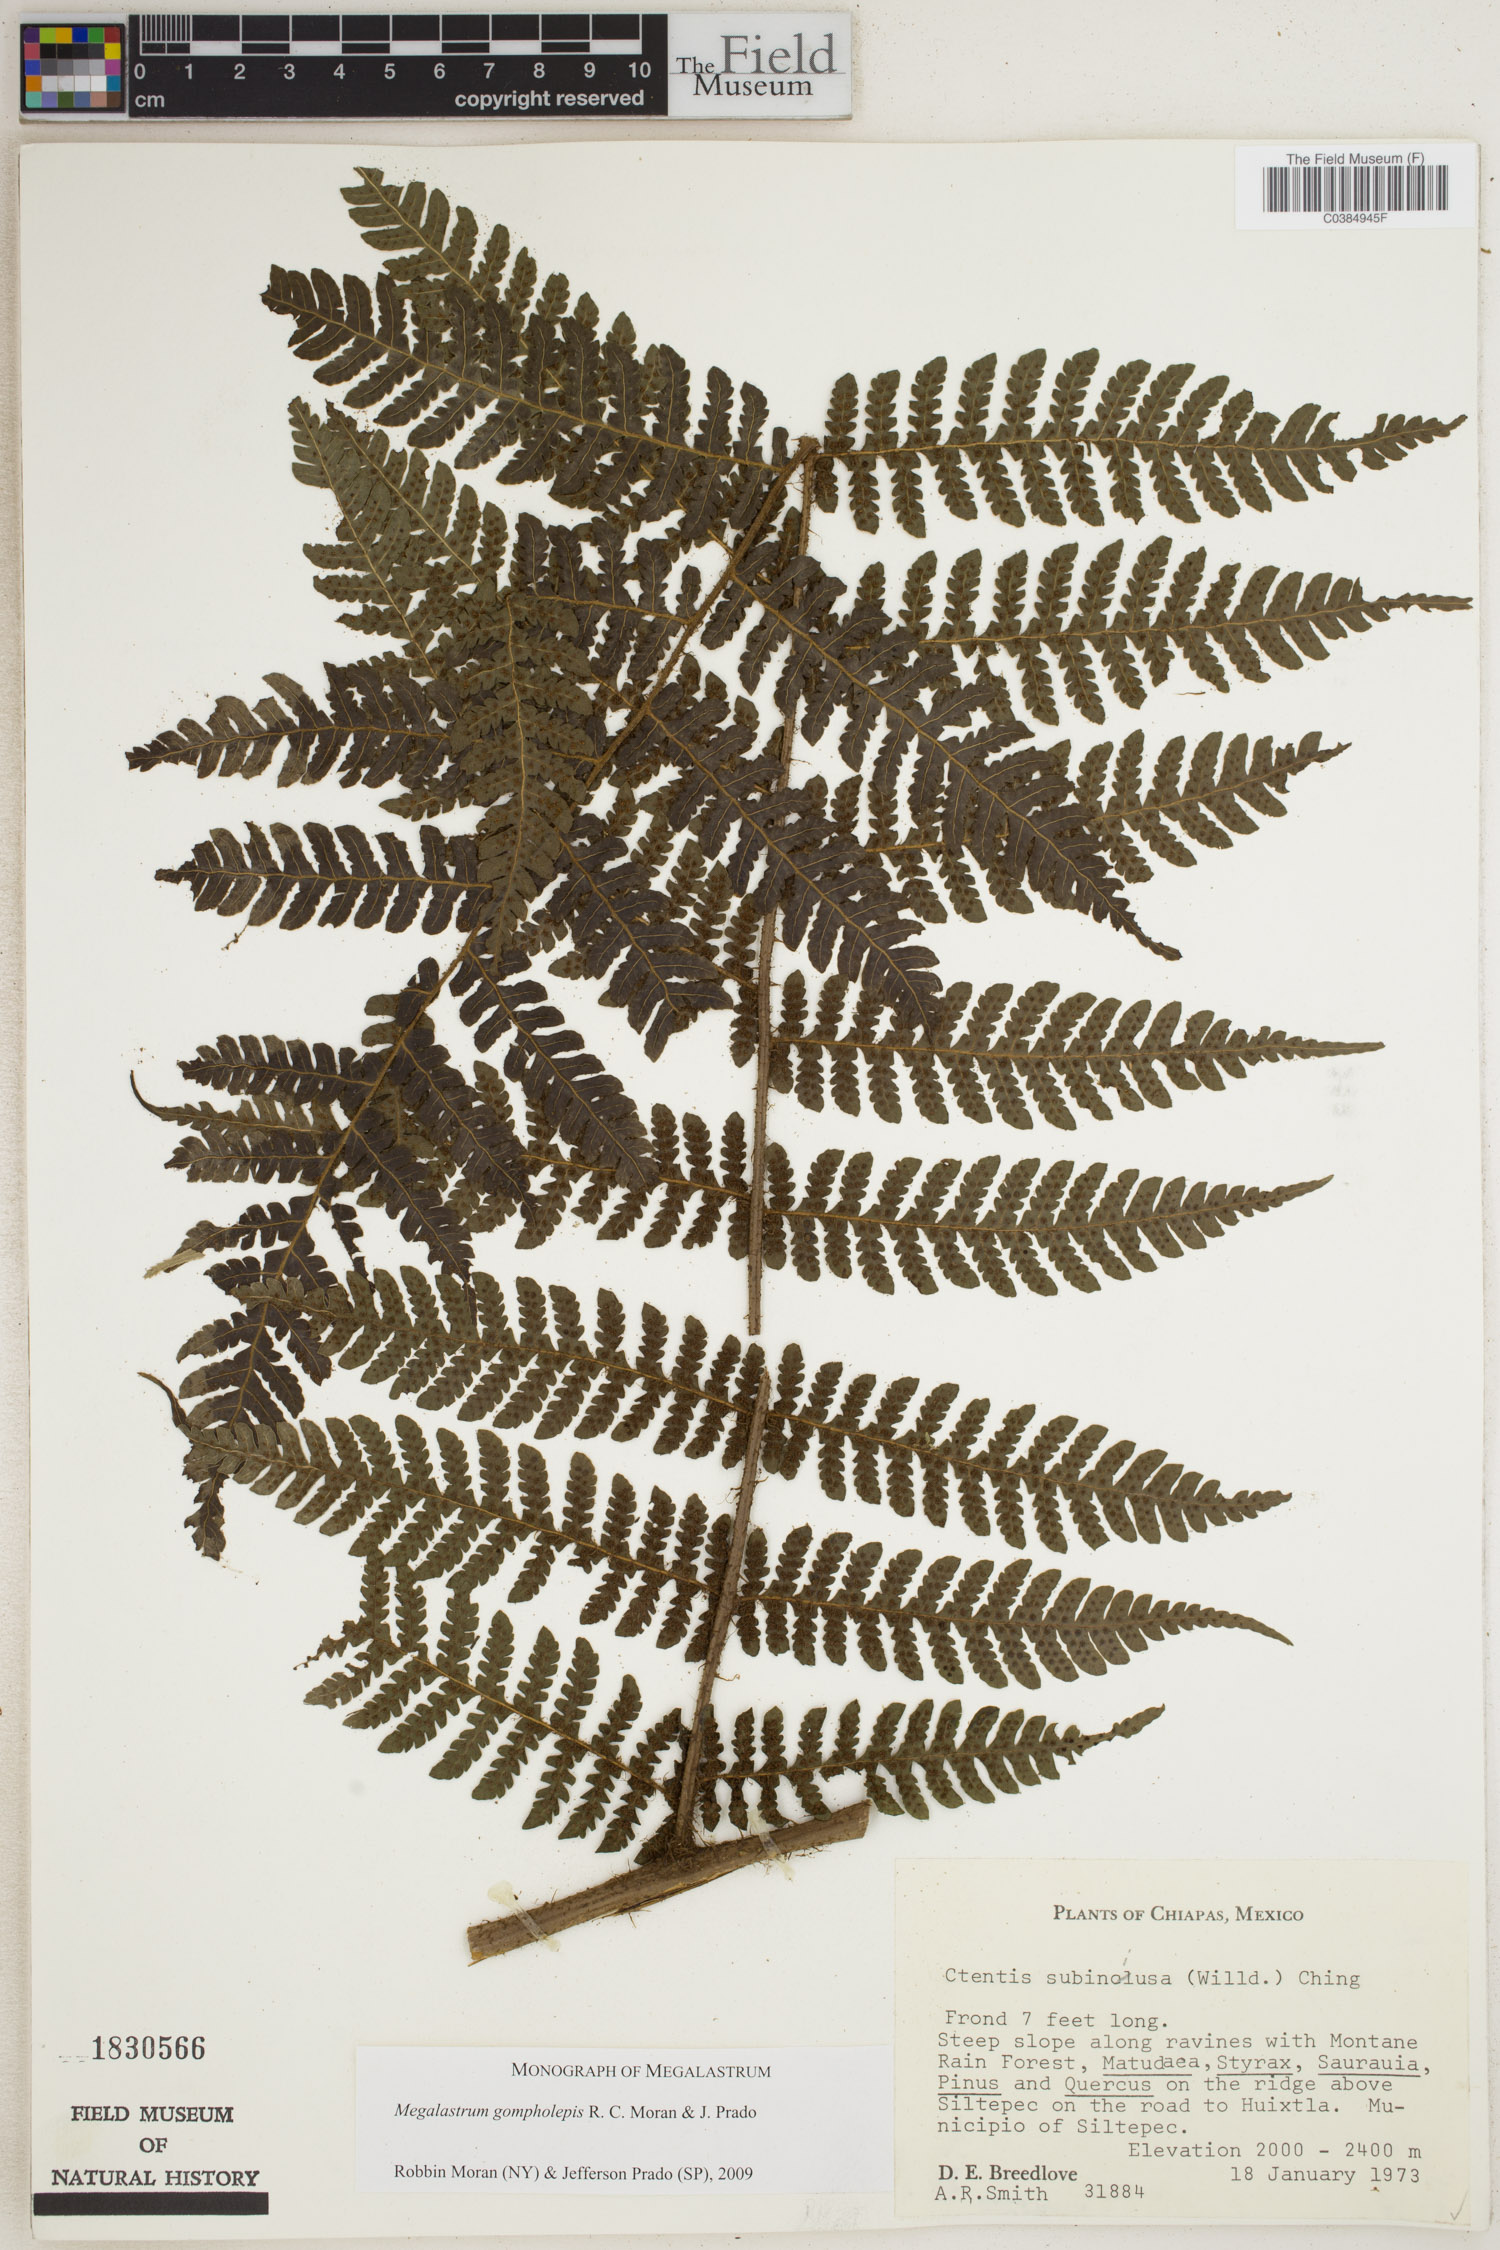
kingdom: Plantae
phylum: Tracheophyta
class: Polypodiopsida
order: Polypodiales
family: Dryopteridaceae
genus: Megalastrum
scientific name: Megalastrum gompholepis
